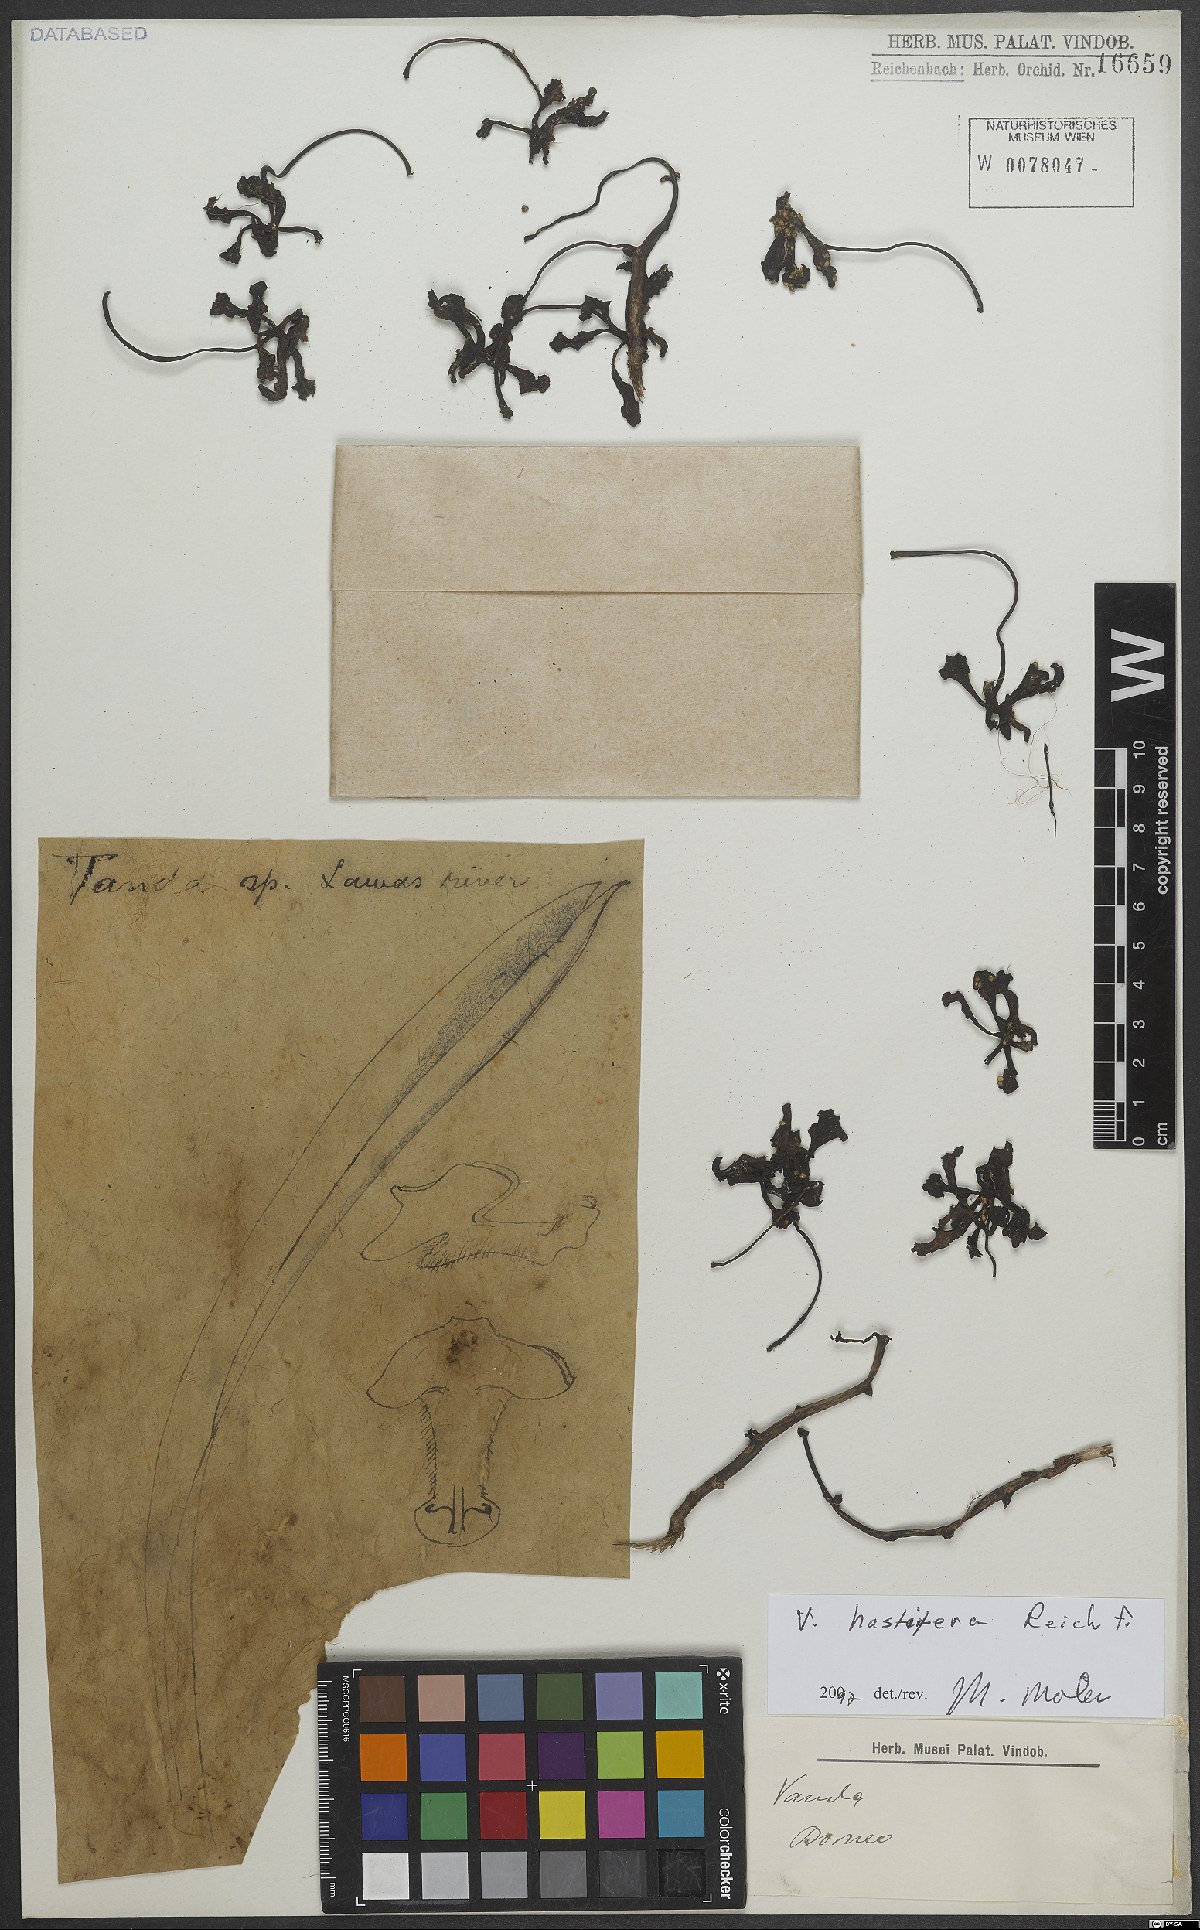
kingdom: Plantae
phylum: Tracheophyta
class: Liliopsida
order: Asparagales
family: Orchidaceae
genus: Vanda
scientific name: Vanda hastifera
